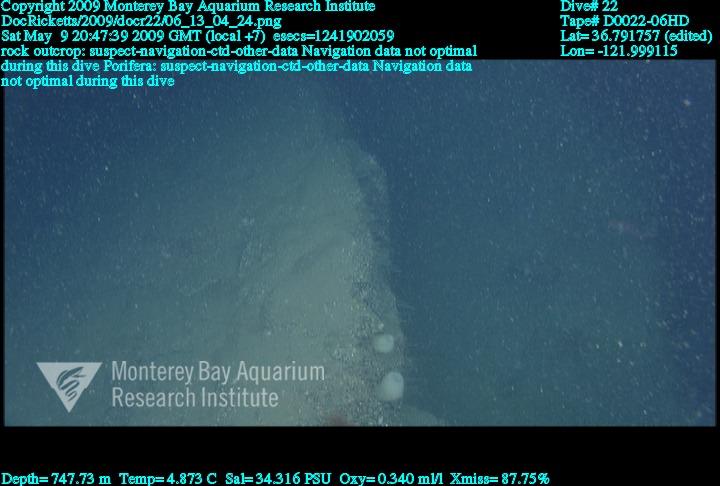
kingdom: Animalia
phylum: Porifera
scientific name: Porifera
